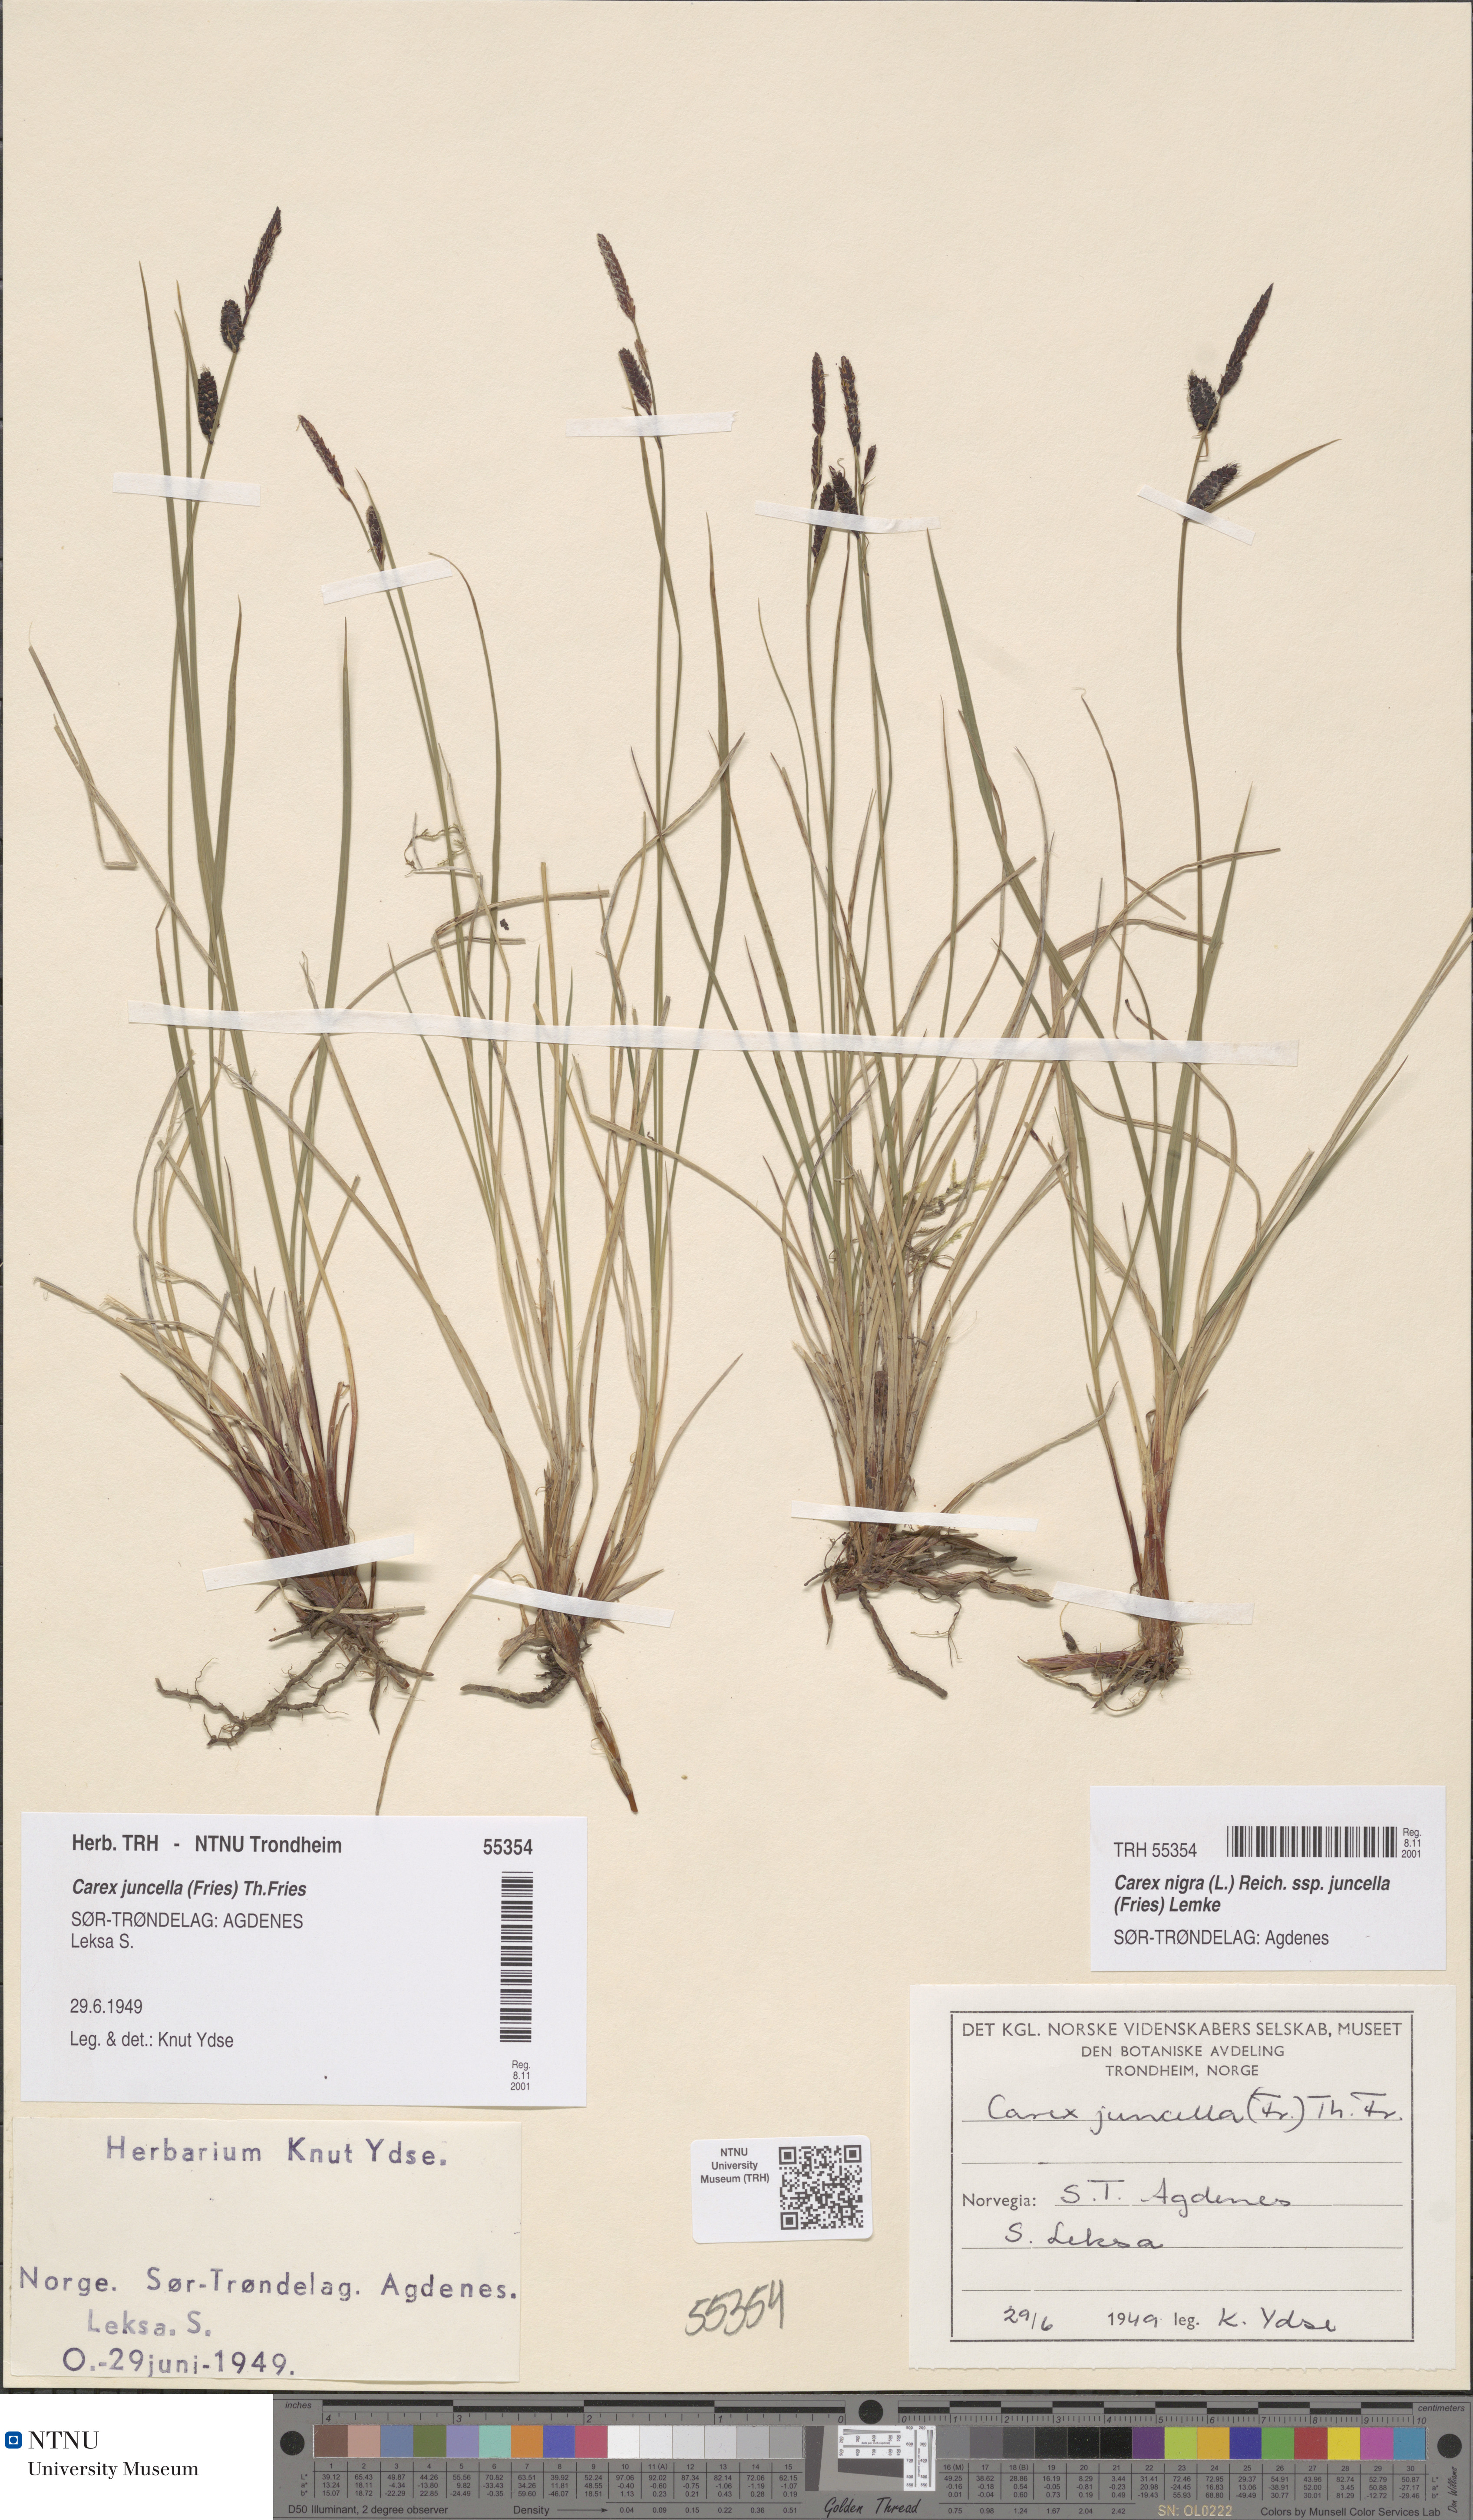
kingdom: Plantae
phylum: Tracheophyta
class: Liliopsida
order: Poales
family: Cyperaceae
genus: Carex
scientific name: Carex nigra
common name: Common sedge
